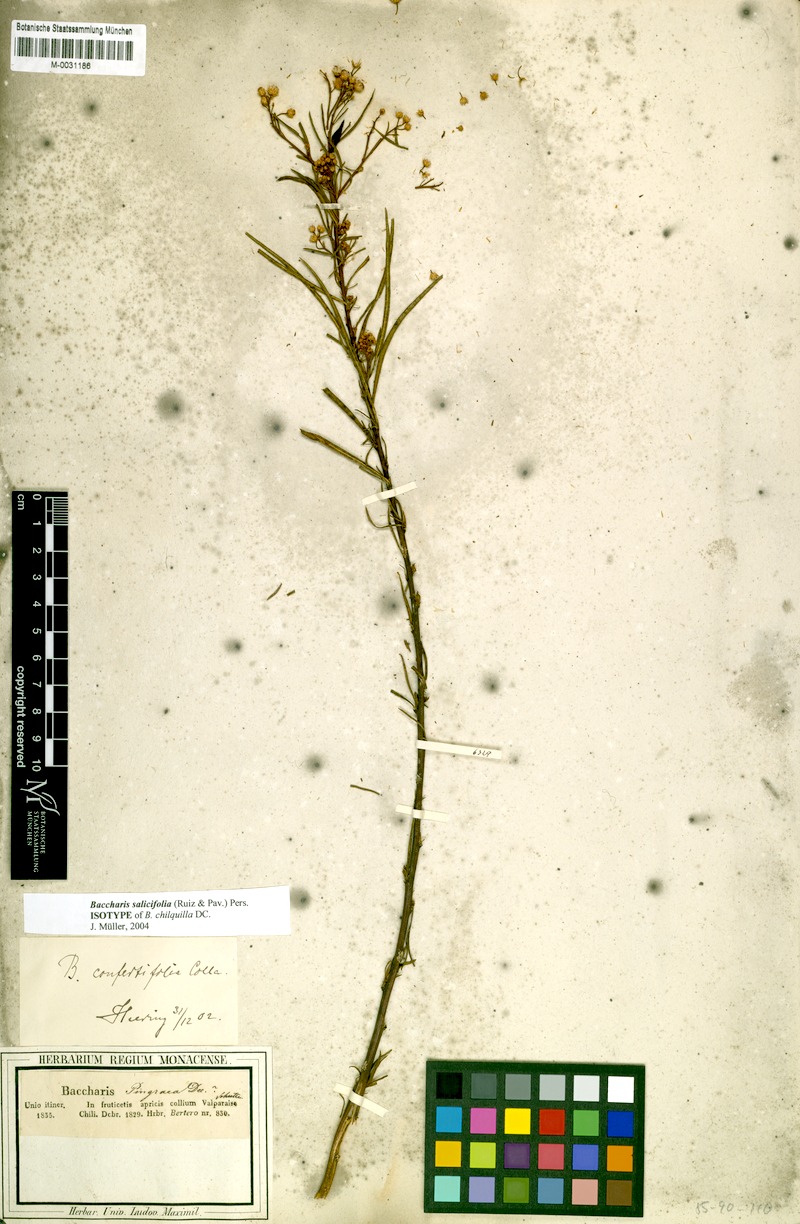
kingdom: Plantae
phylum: Tracheophyta
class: Magnoliopsida
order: Asterales
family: Asteraceae
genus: Baccharis
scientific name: Baccharis salicifolia
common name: Sticky baccharis
